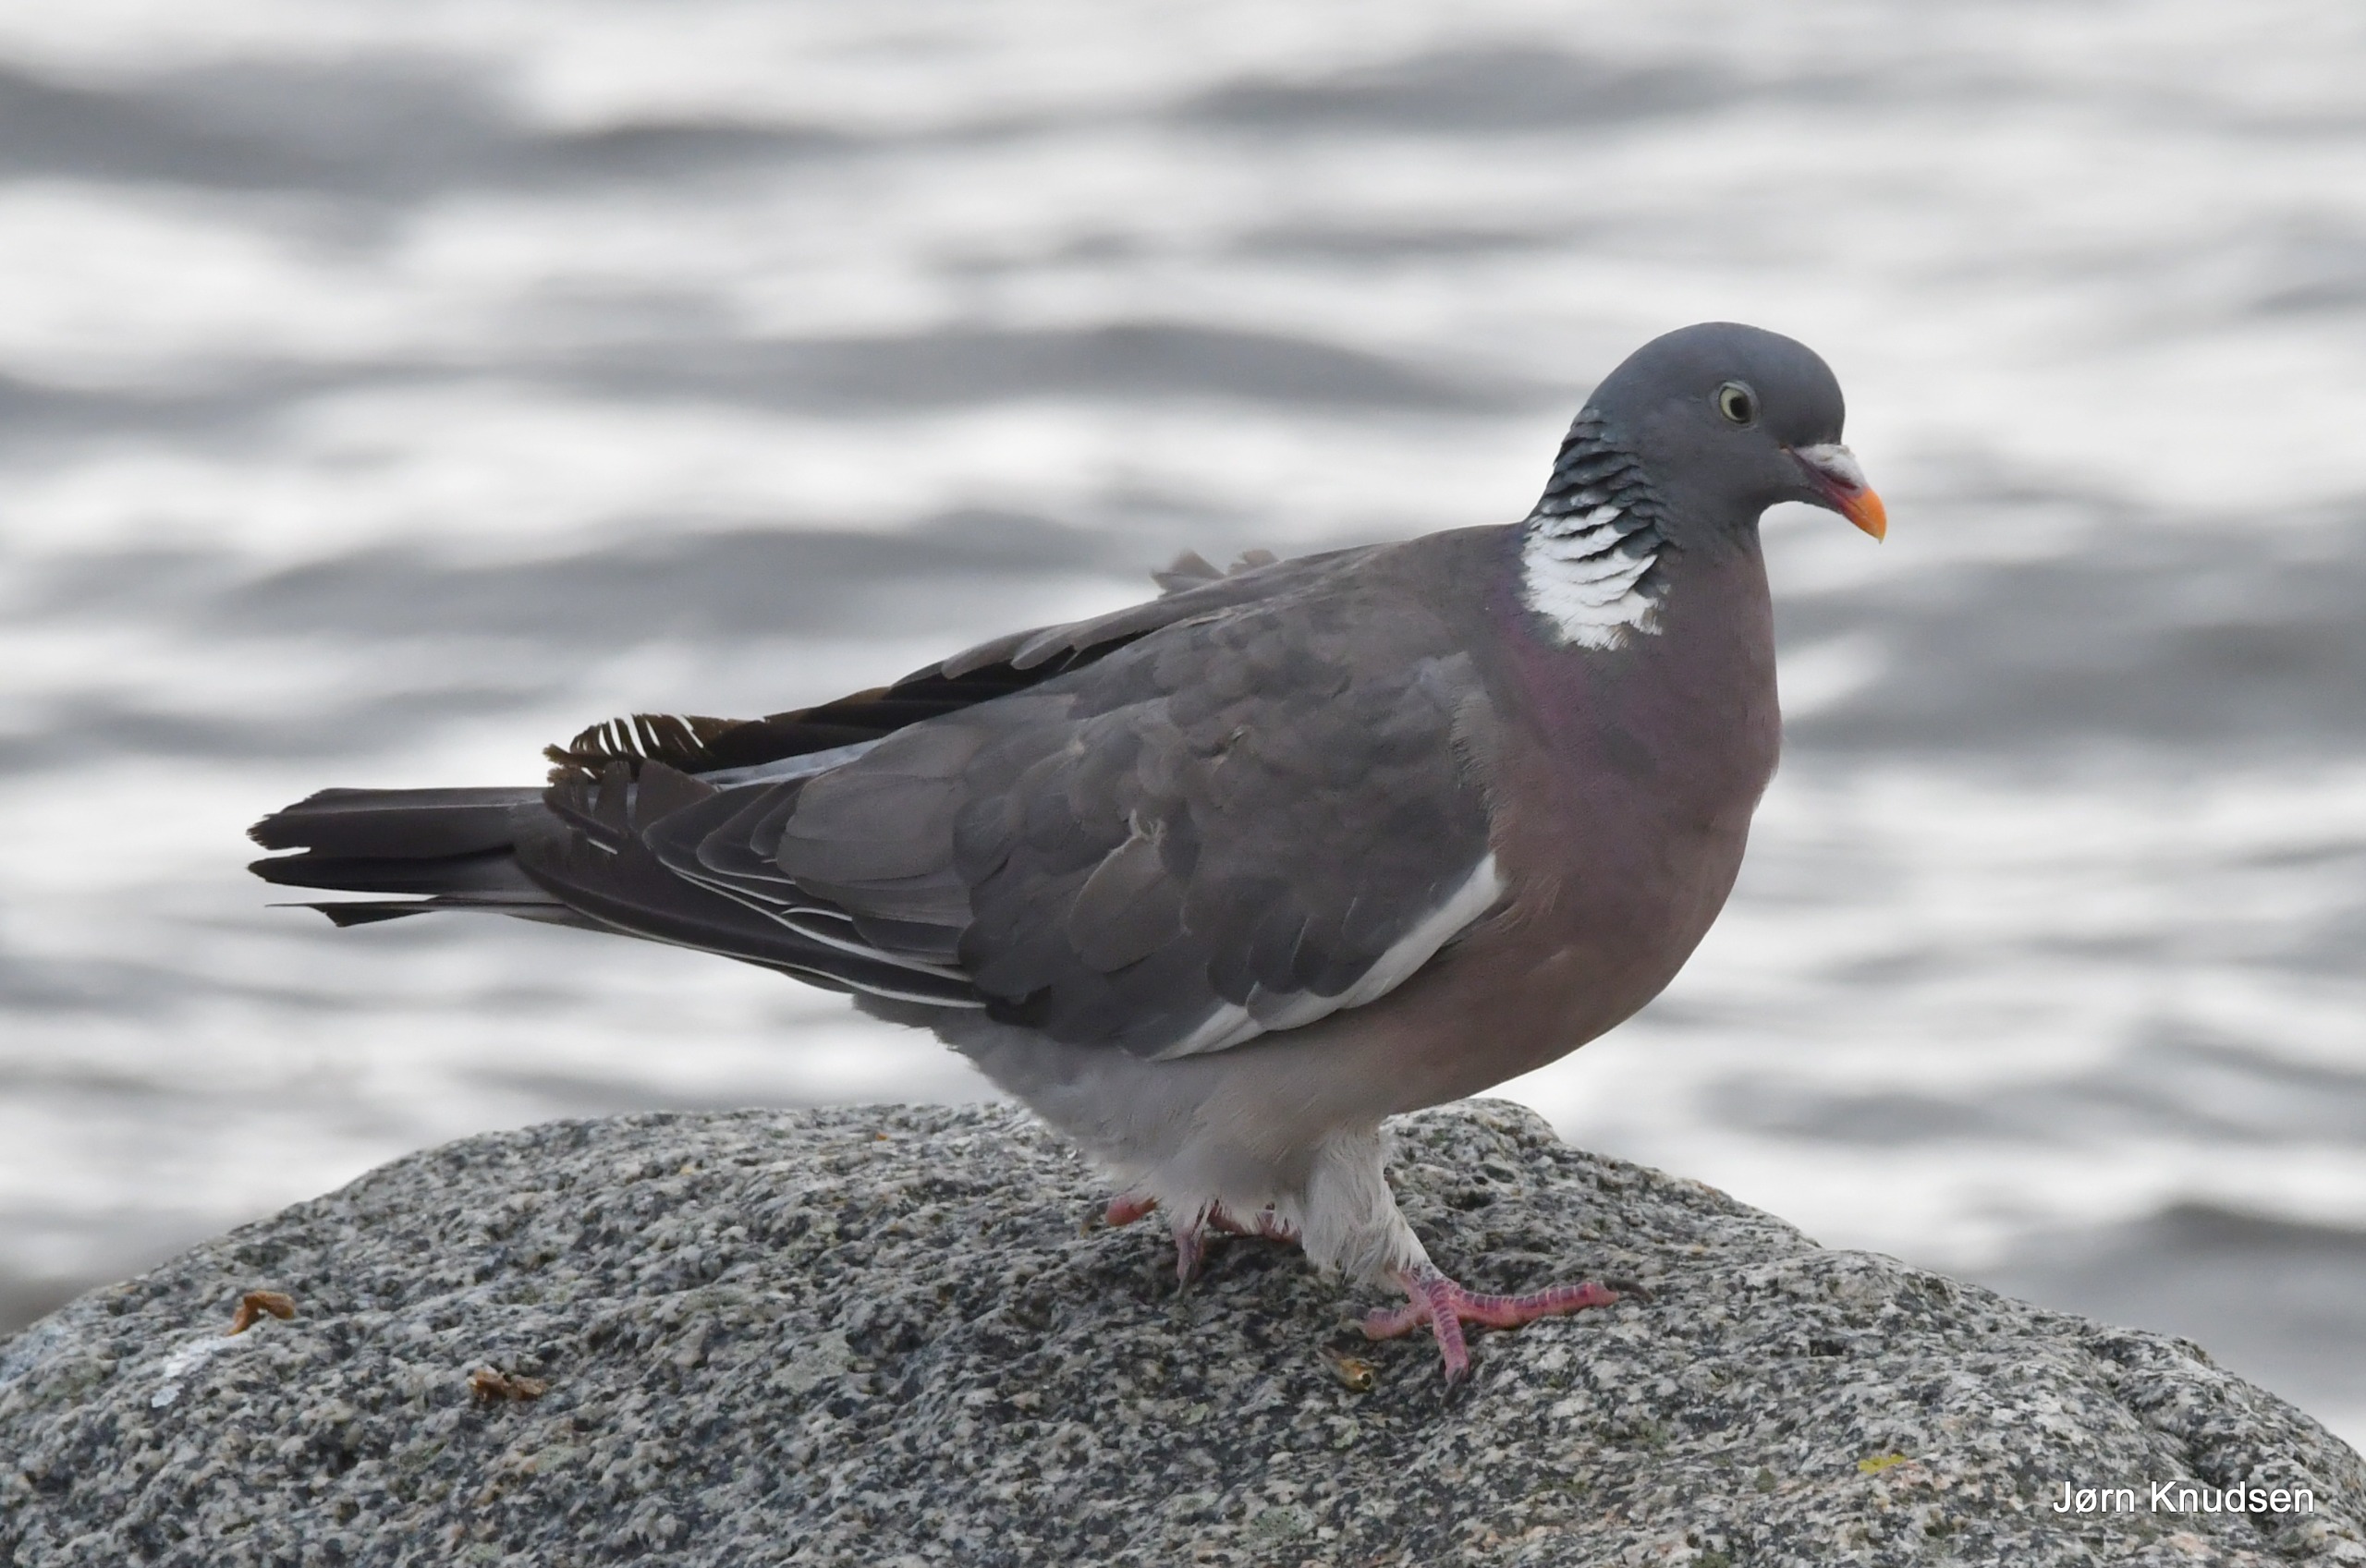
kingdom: Animalia
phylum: Chordata
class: Aves
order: Columbiformes
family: Columbidae
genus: Columba
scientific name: Columba palumbus
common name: Ringdue
